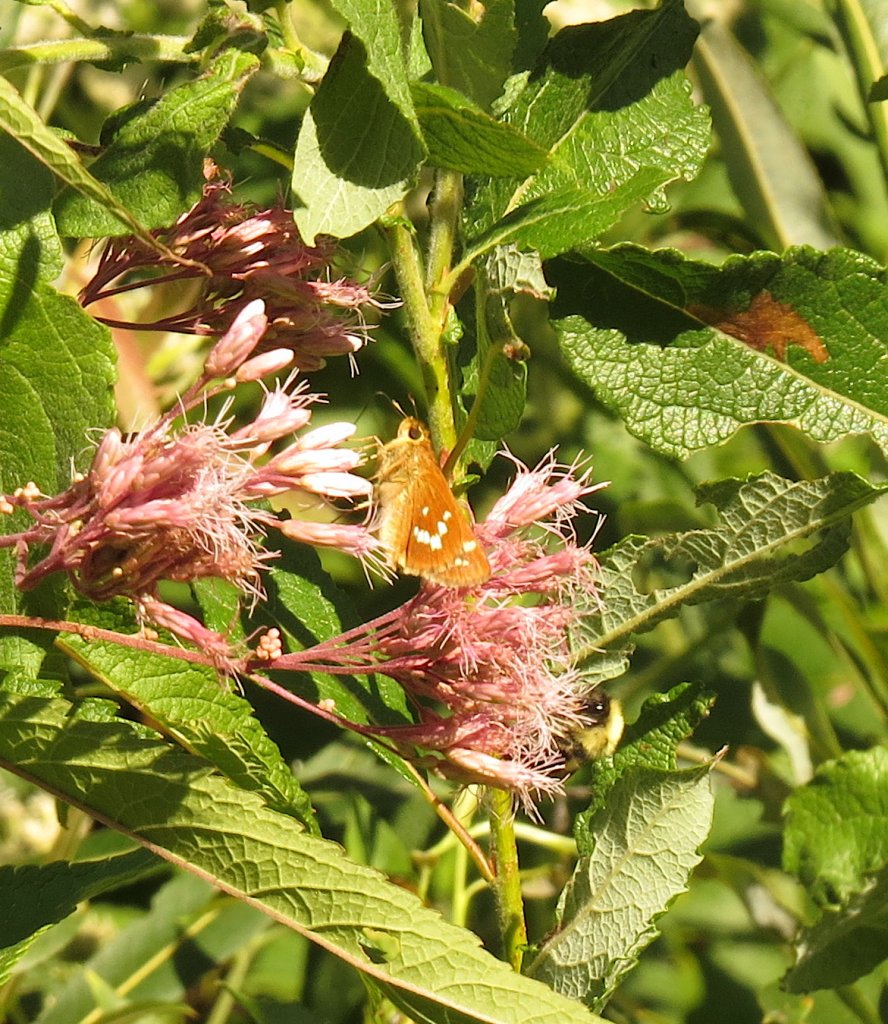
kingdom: Animalia
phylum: Arthropoda
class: Insecta
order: Lepidoptera
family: Hesperiidae
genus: Hesperia
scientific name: Hesperia leonardus
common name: Leonard's Skipper
